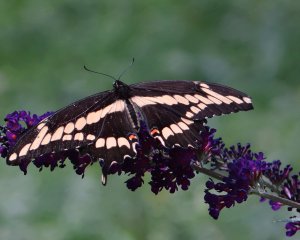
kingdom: Animalia
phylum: Arthropoda
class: Insecta
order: Lepidoptera
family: Papilionidae
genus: Papilio
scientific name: Papilio cresphontes
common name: Eastern Giant Swallowtail
